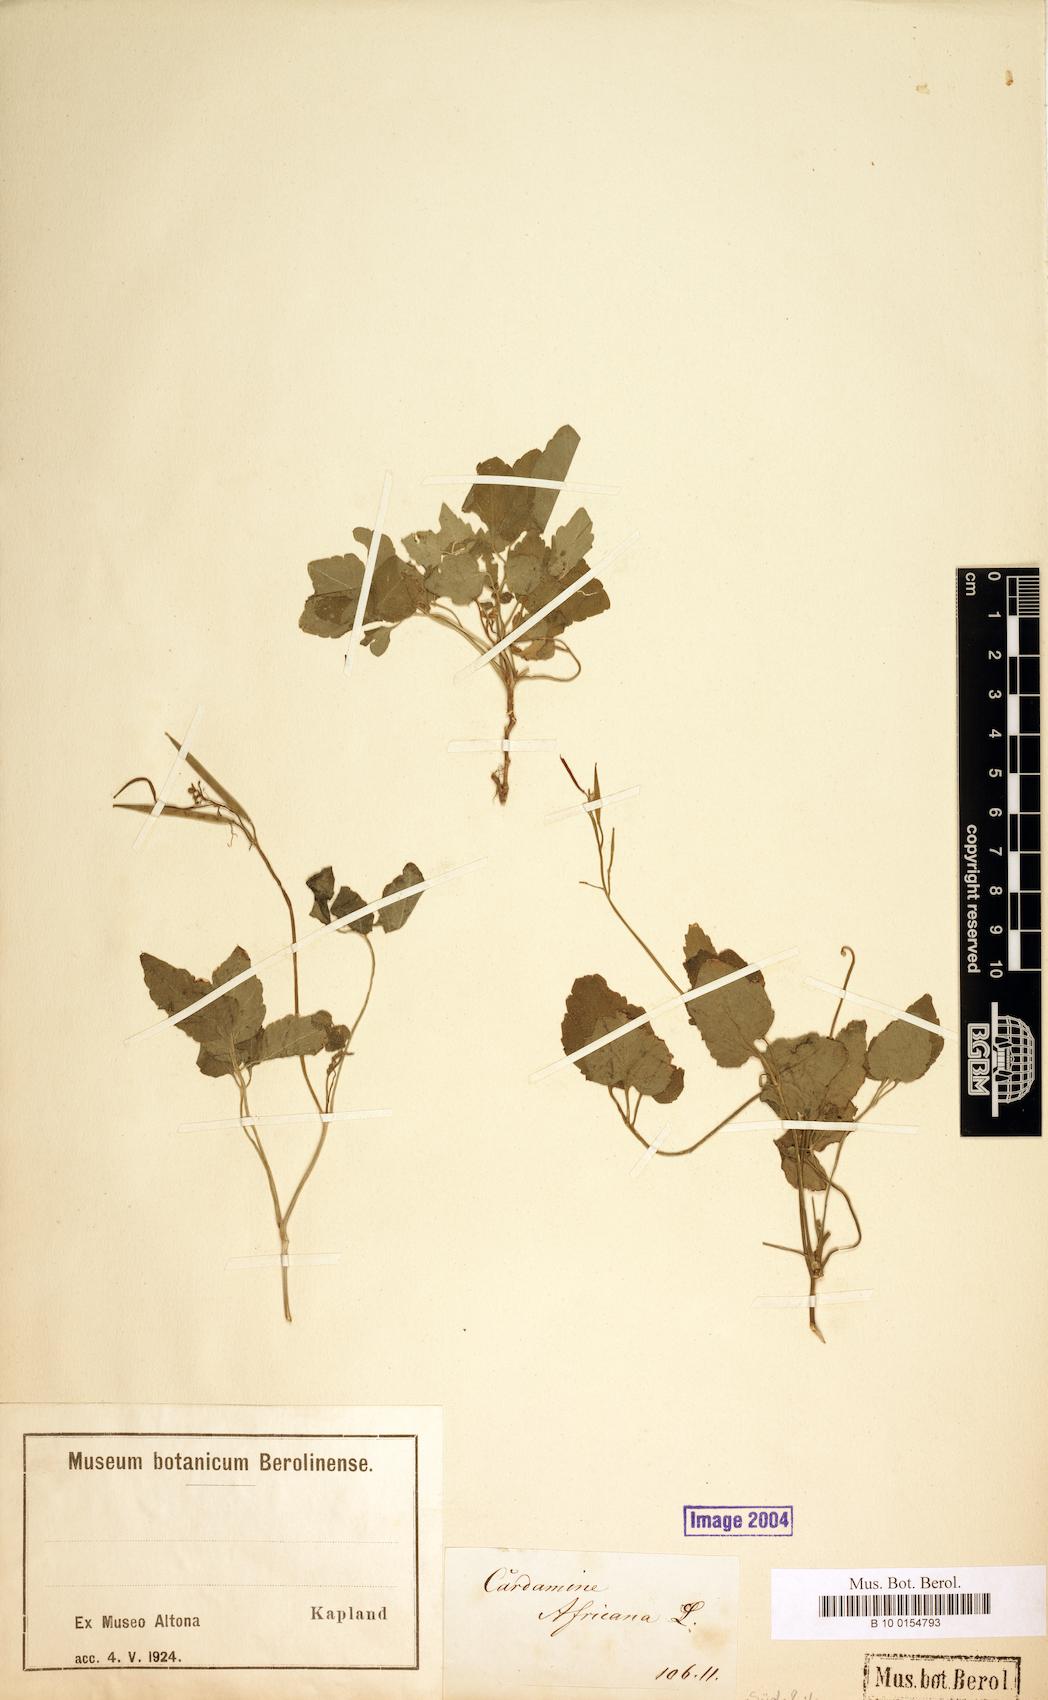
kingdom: Plantae
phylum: Tracheophyta
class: Magnoliopsida
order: Brassicales
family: Brassicaceae
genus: Cardamine
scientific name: Cardamine africana
